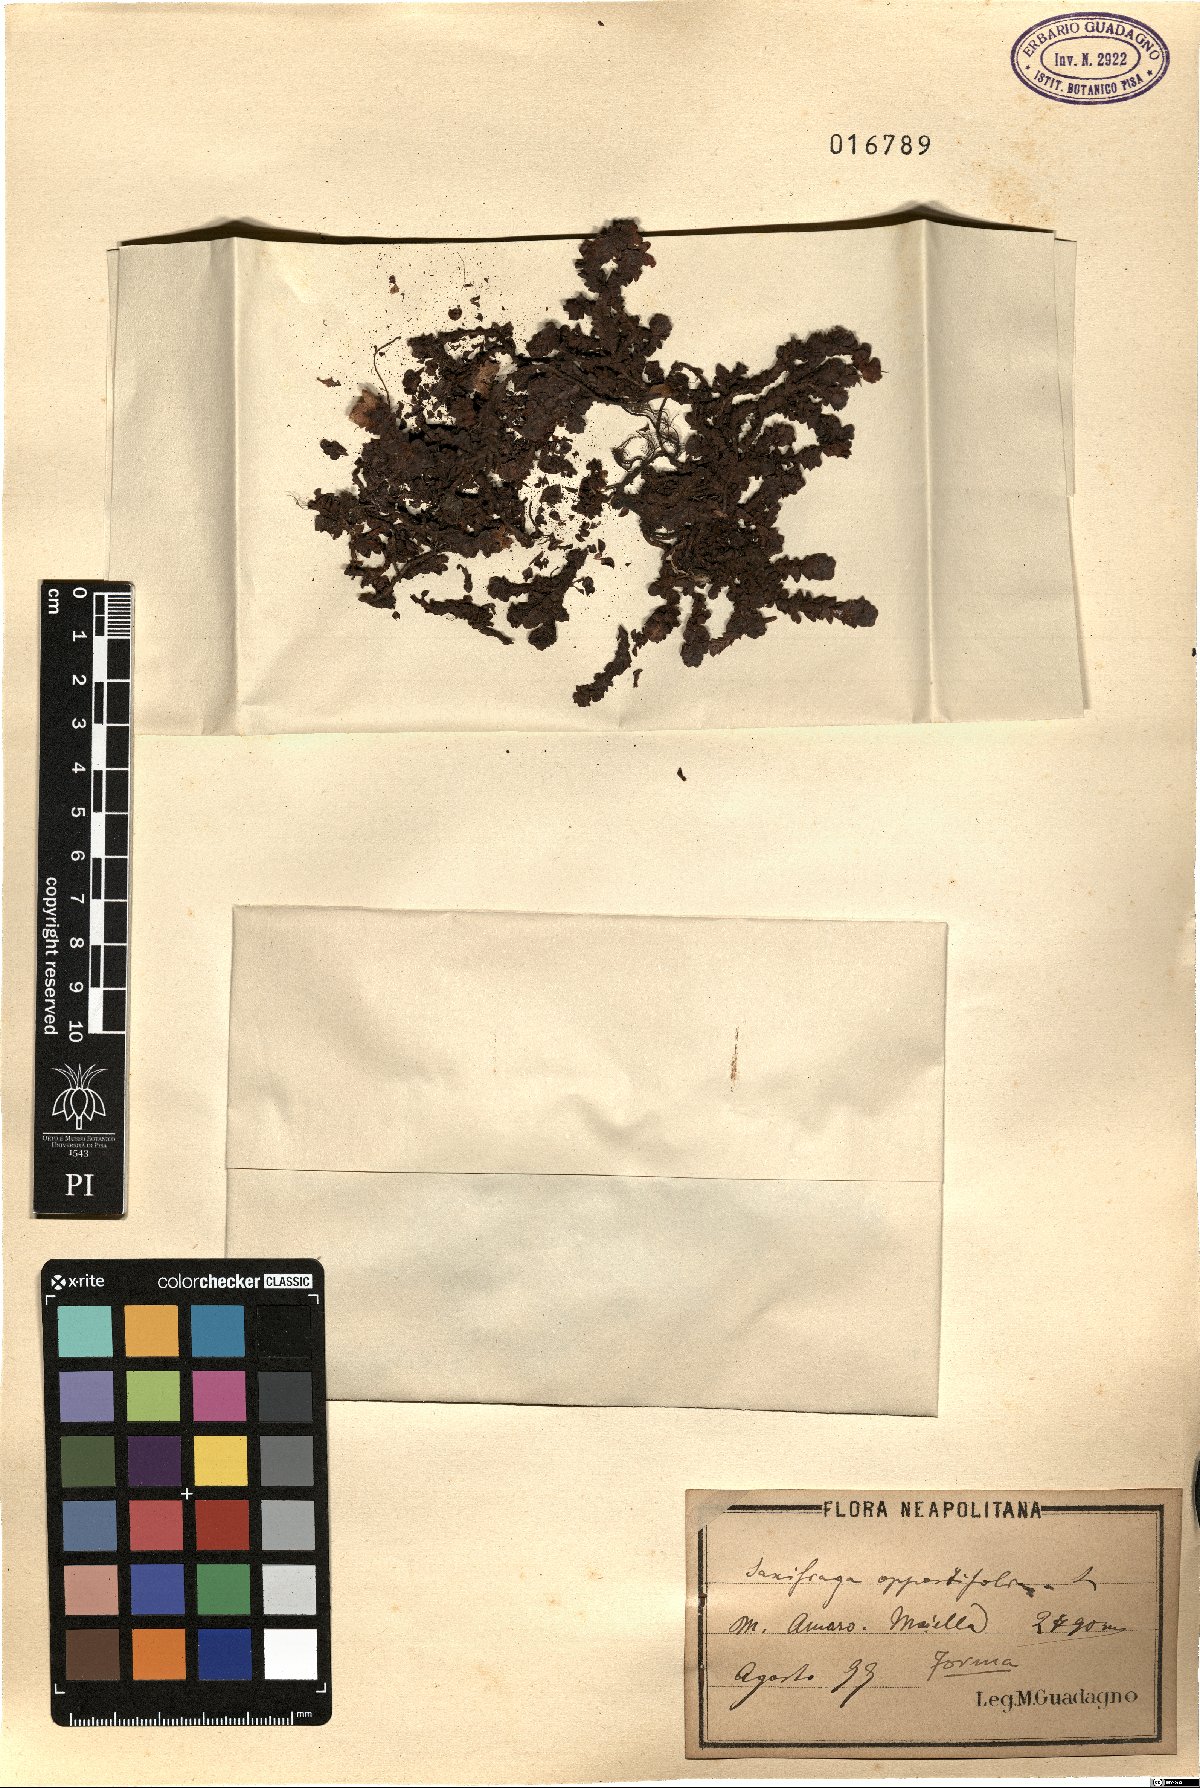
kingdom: Plantae
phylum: Tracheophyta
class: Magnoliopsida
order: Saxifragales
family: Saxifragaceae
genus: Saxifraga
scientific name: Saxifraga oppositifolia
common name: Purple saxifrage
